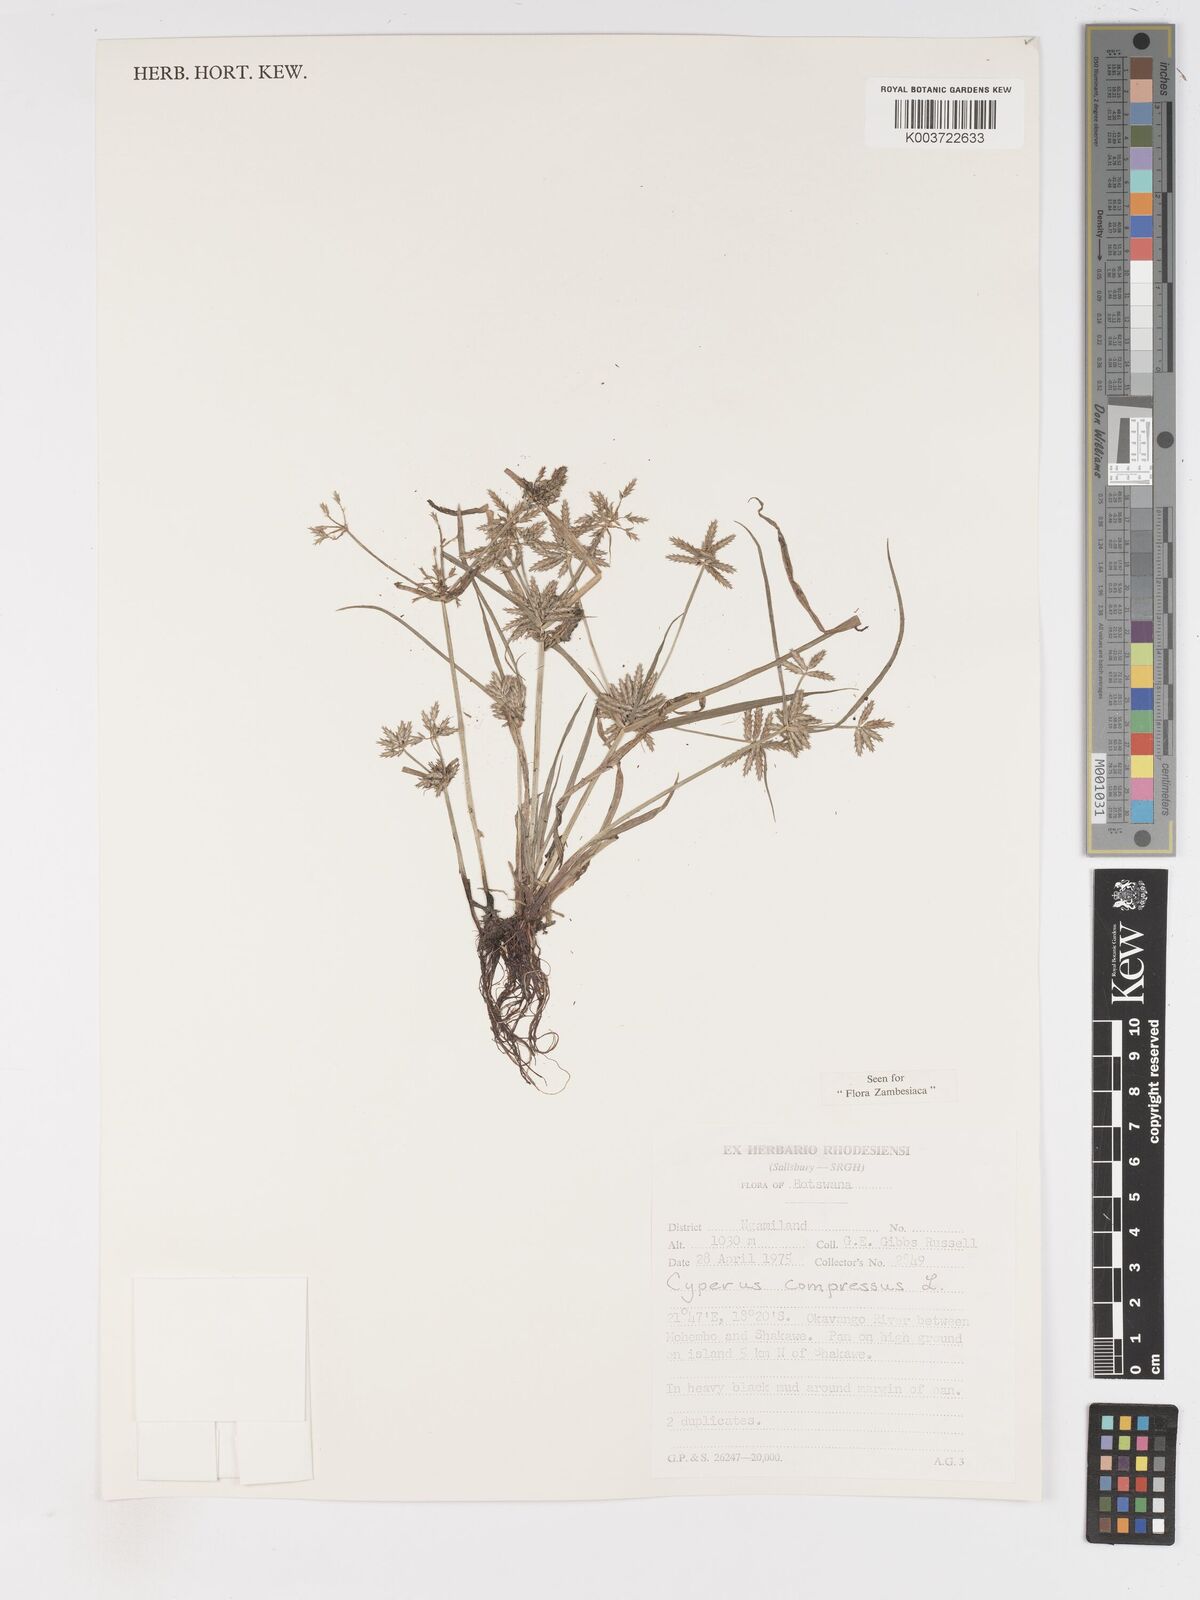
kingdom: Plantae
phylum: Tracheophyta
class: Liliopsida
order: Poales
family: Cyperaceae
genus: Cyperus
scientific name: Cyperus compressus
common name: Poorland flatsedge
